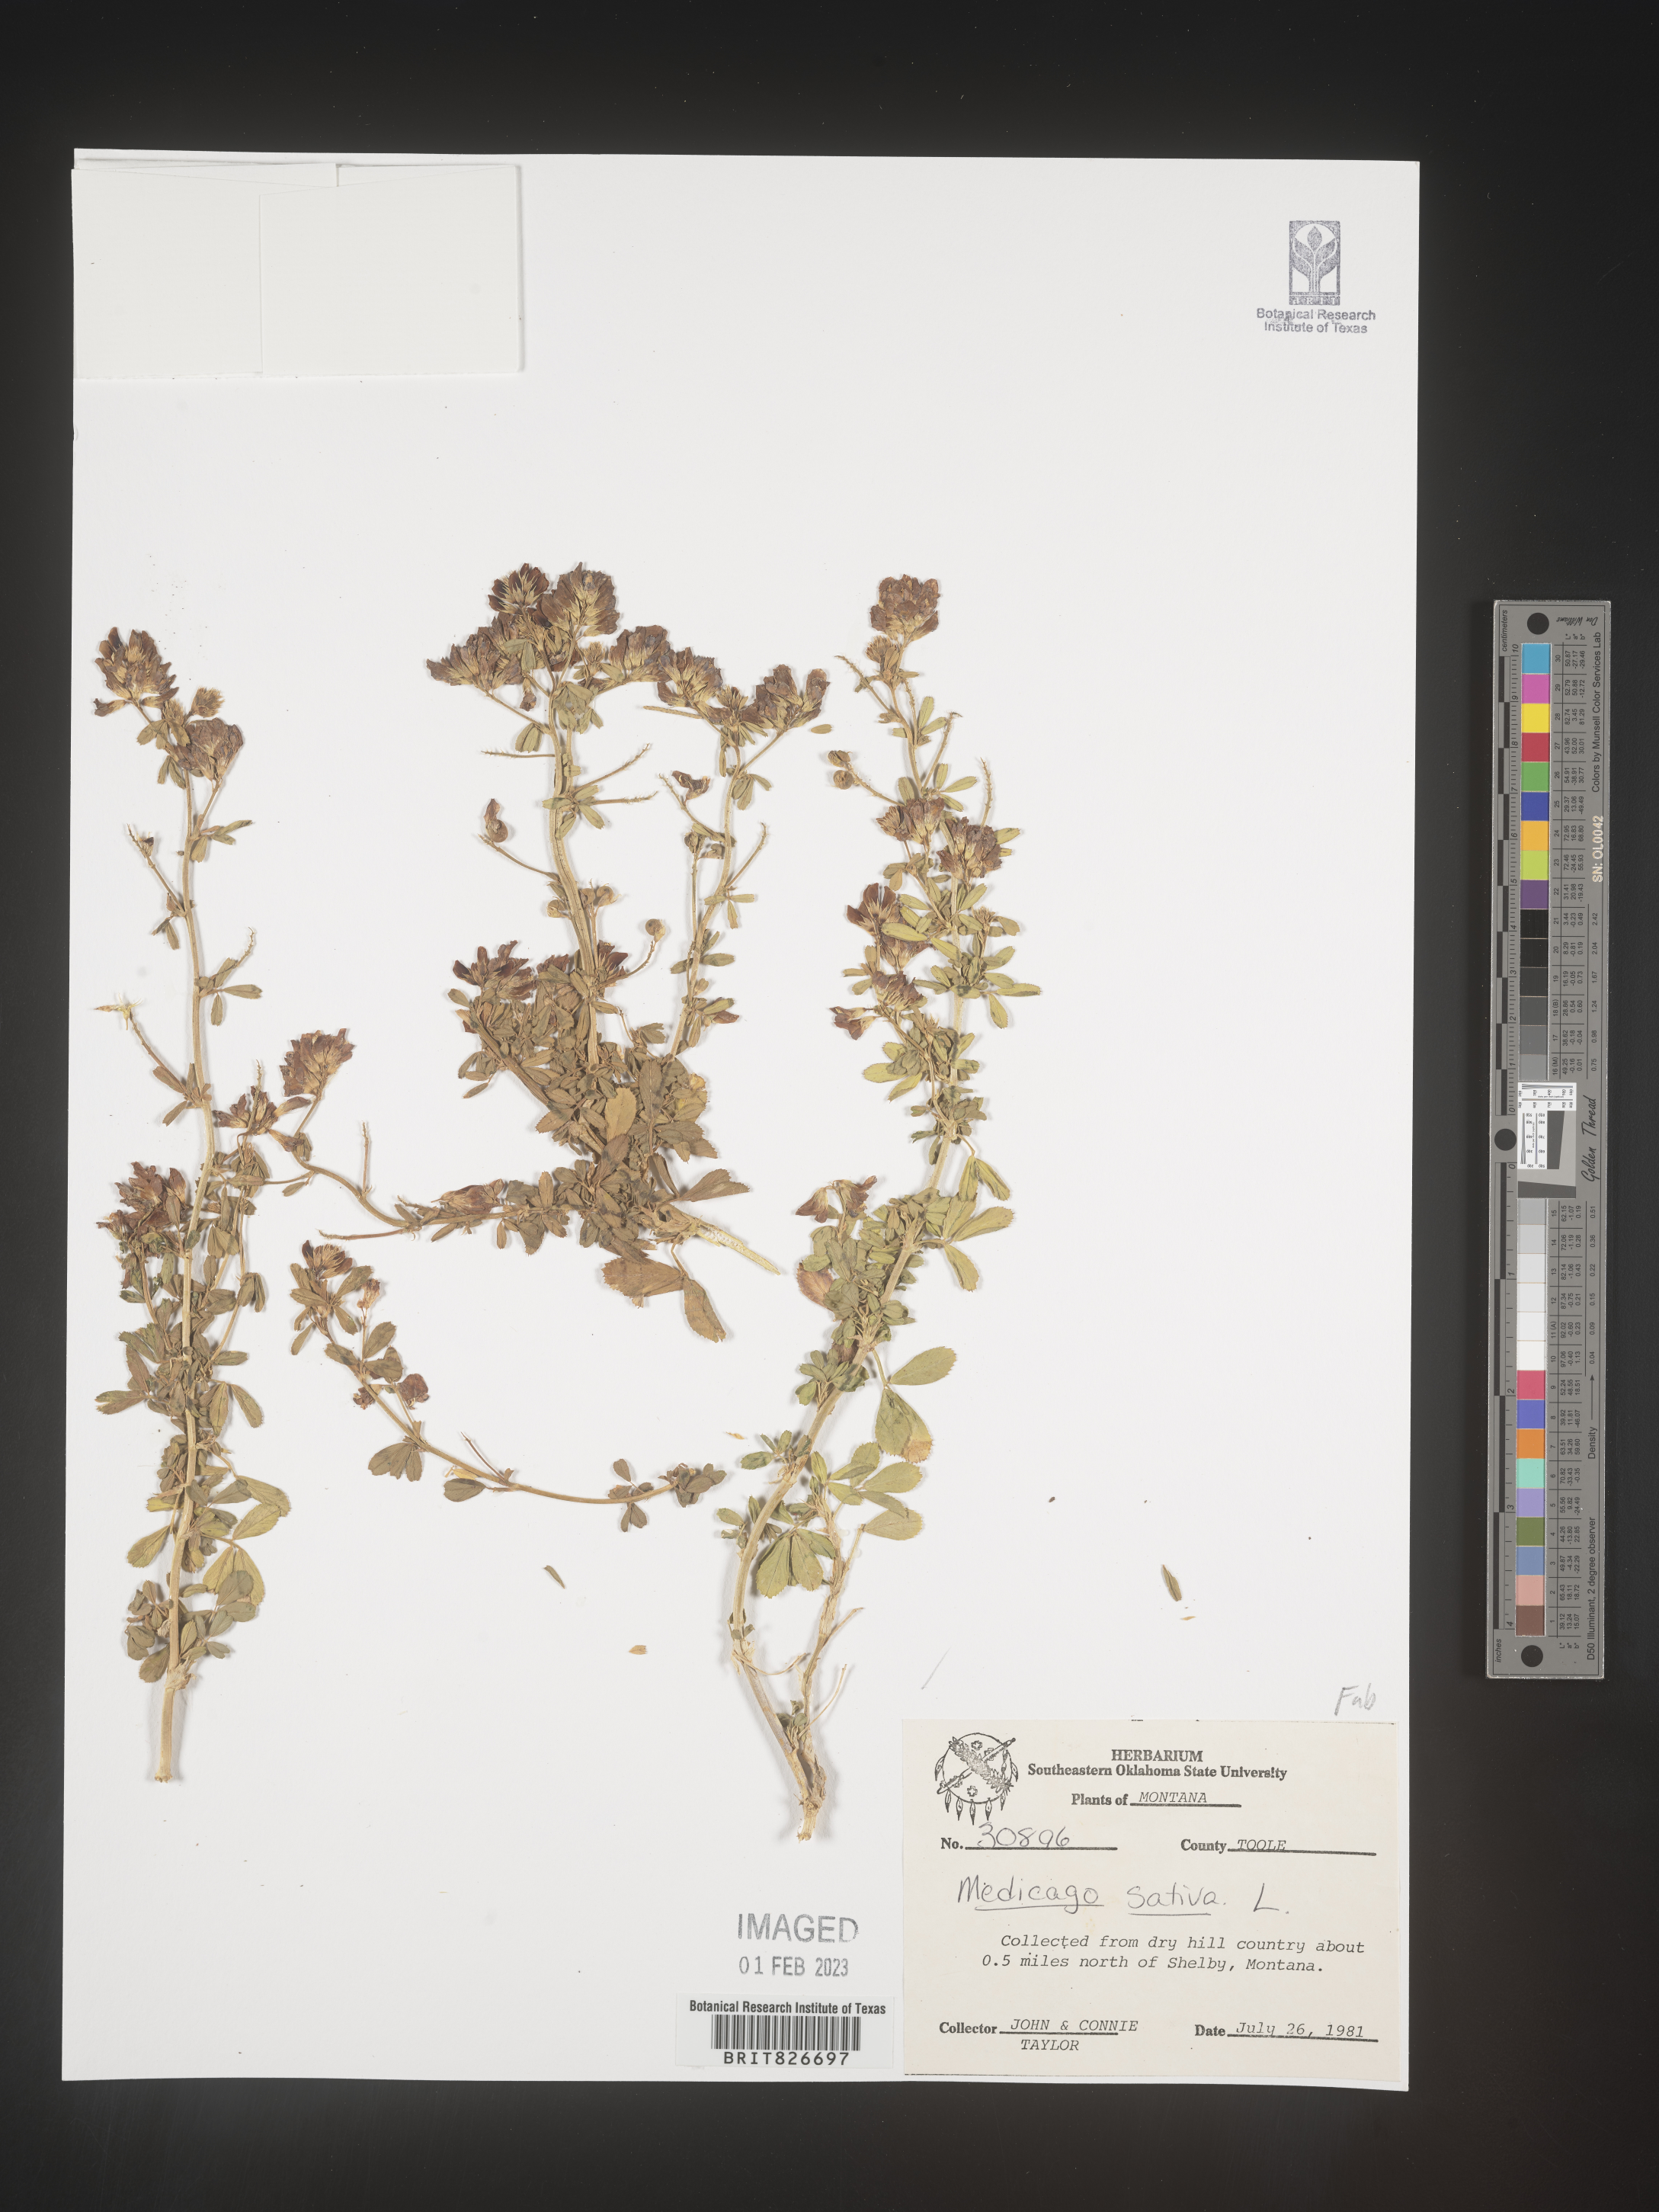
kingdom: Plantae
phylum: Tracheophyta
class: Magnoliopsida
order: Fabales
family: Fabaceae
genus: Medicago
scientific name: Medicago sativa
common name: Alfalfa
